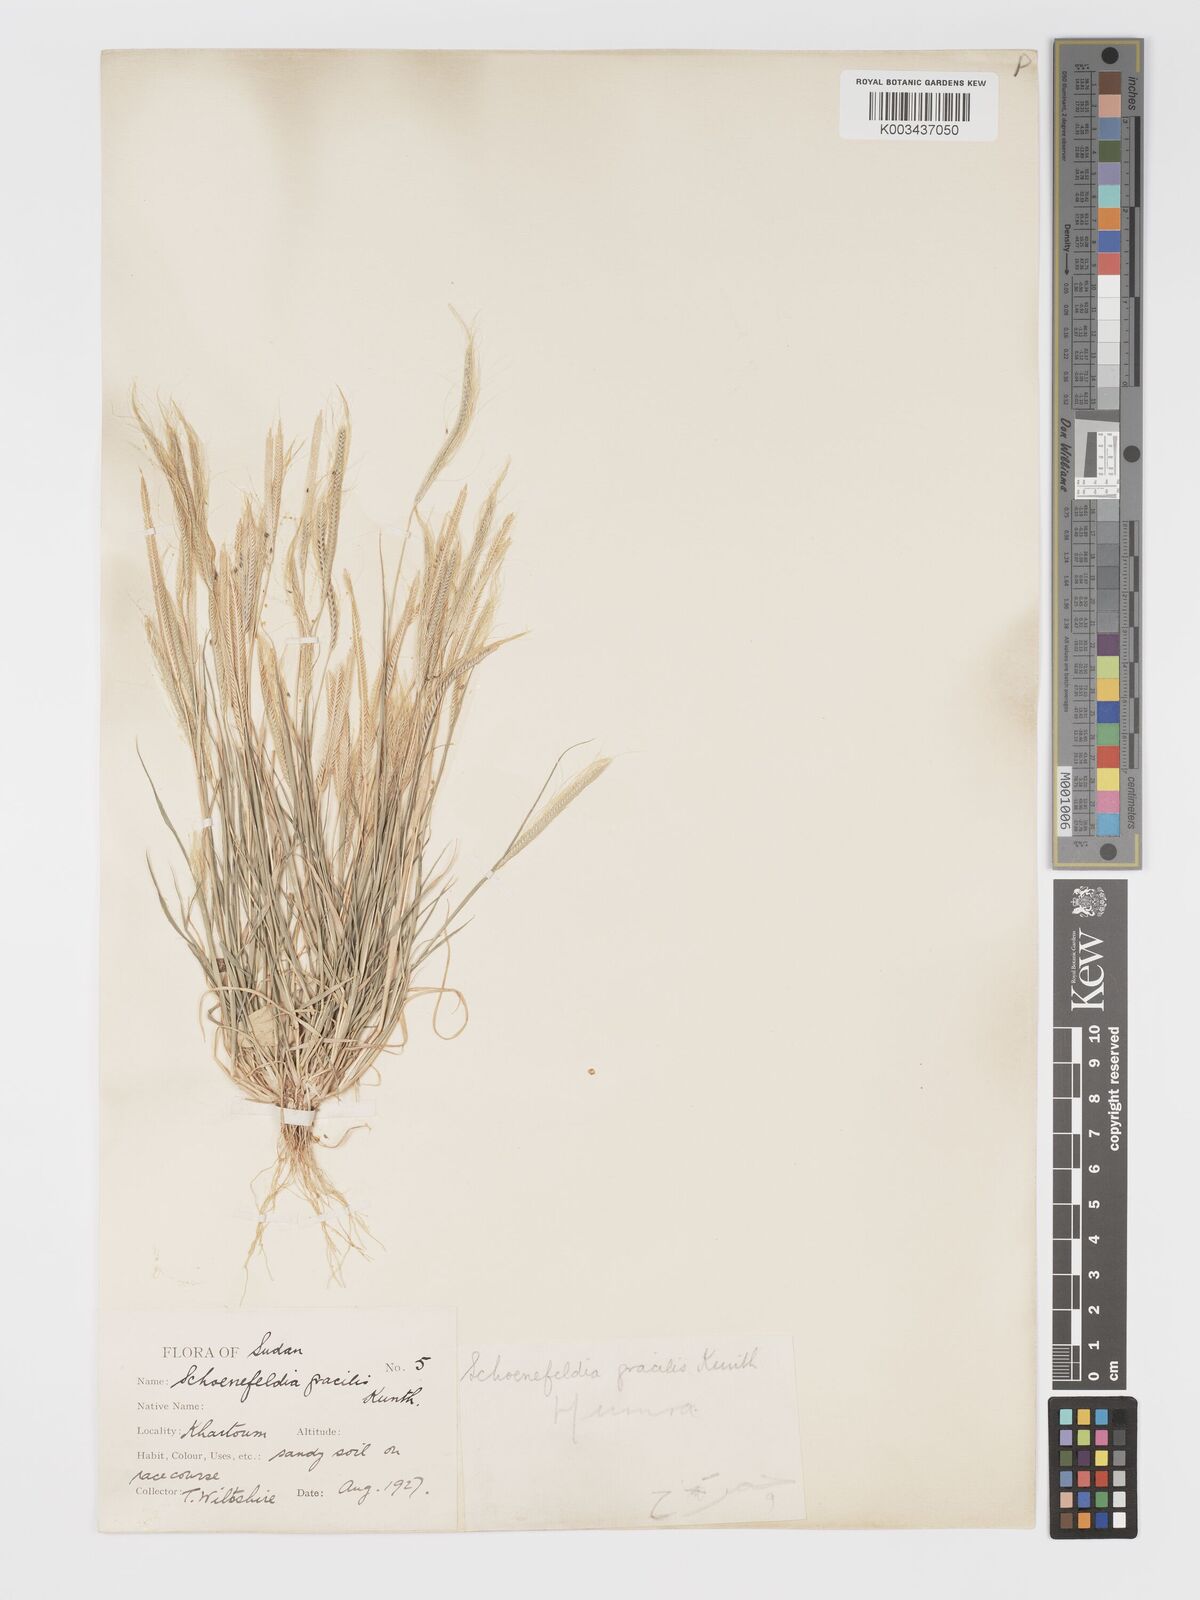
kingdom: Plantae
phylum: Tracheophyta
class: Liliopsida
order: Poales
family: Poaceae
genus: Schoenefeldia
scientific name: Schoenefeldia gracilis
